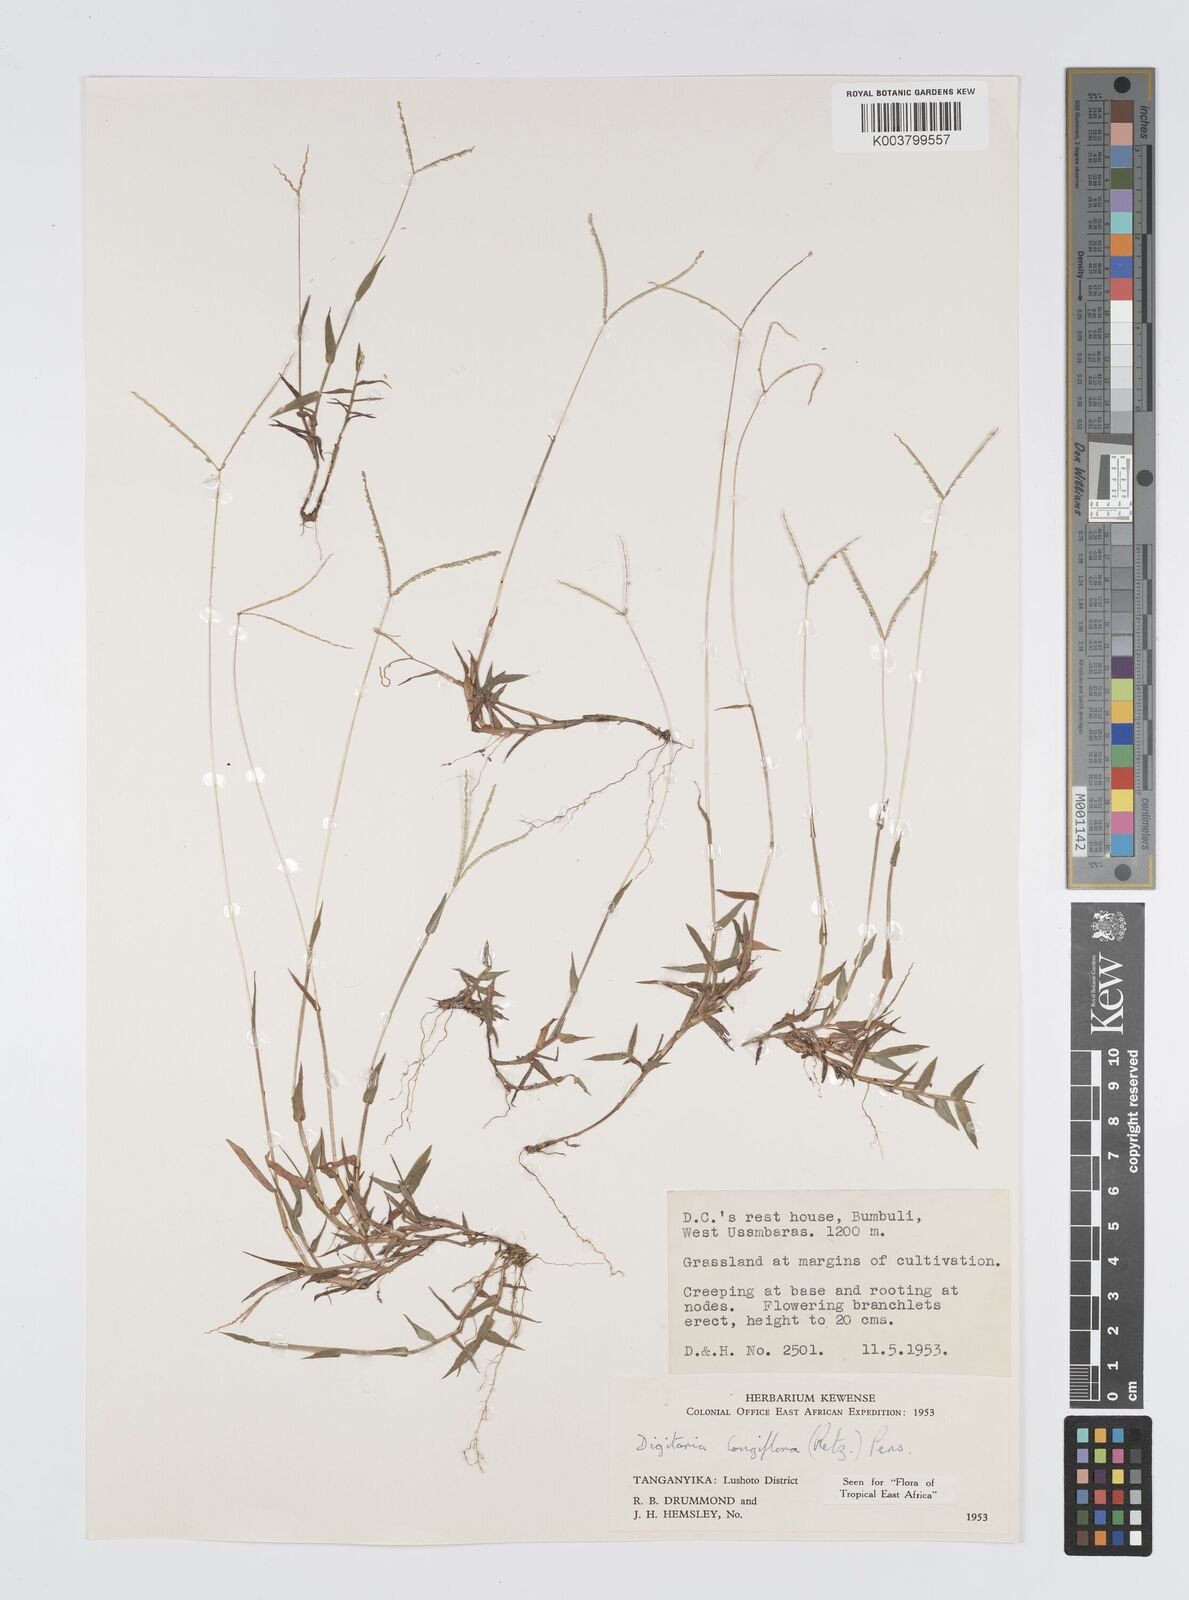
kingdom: Plantae
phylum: Tracheophyta
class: Liliopsida
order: Poales
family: Poaceae
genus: Digitaria
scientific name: Digitaria longiflora
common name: Wire crabgrass
